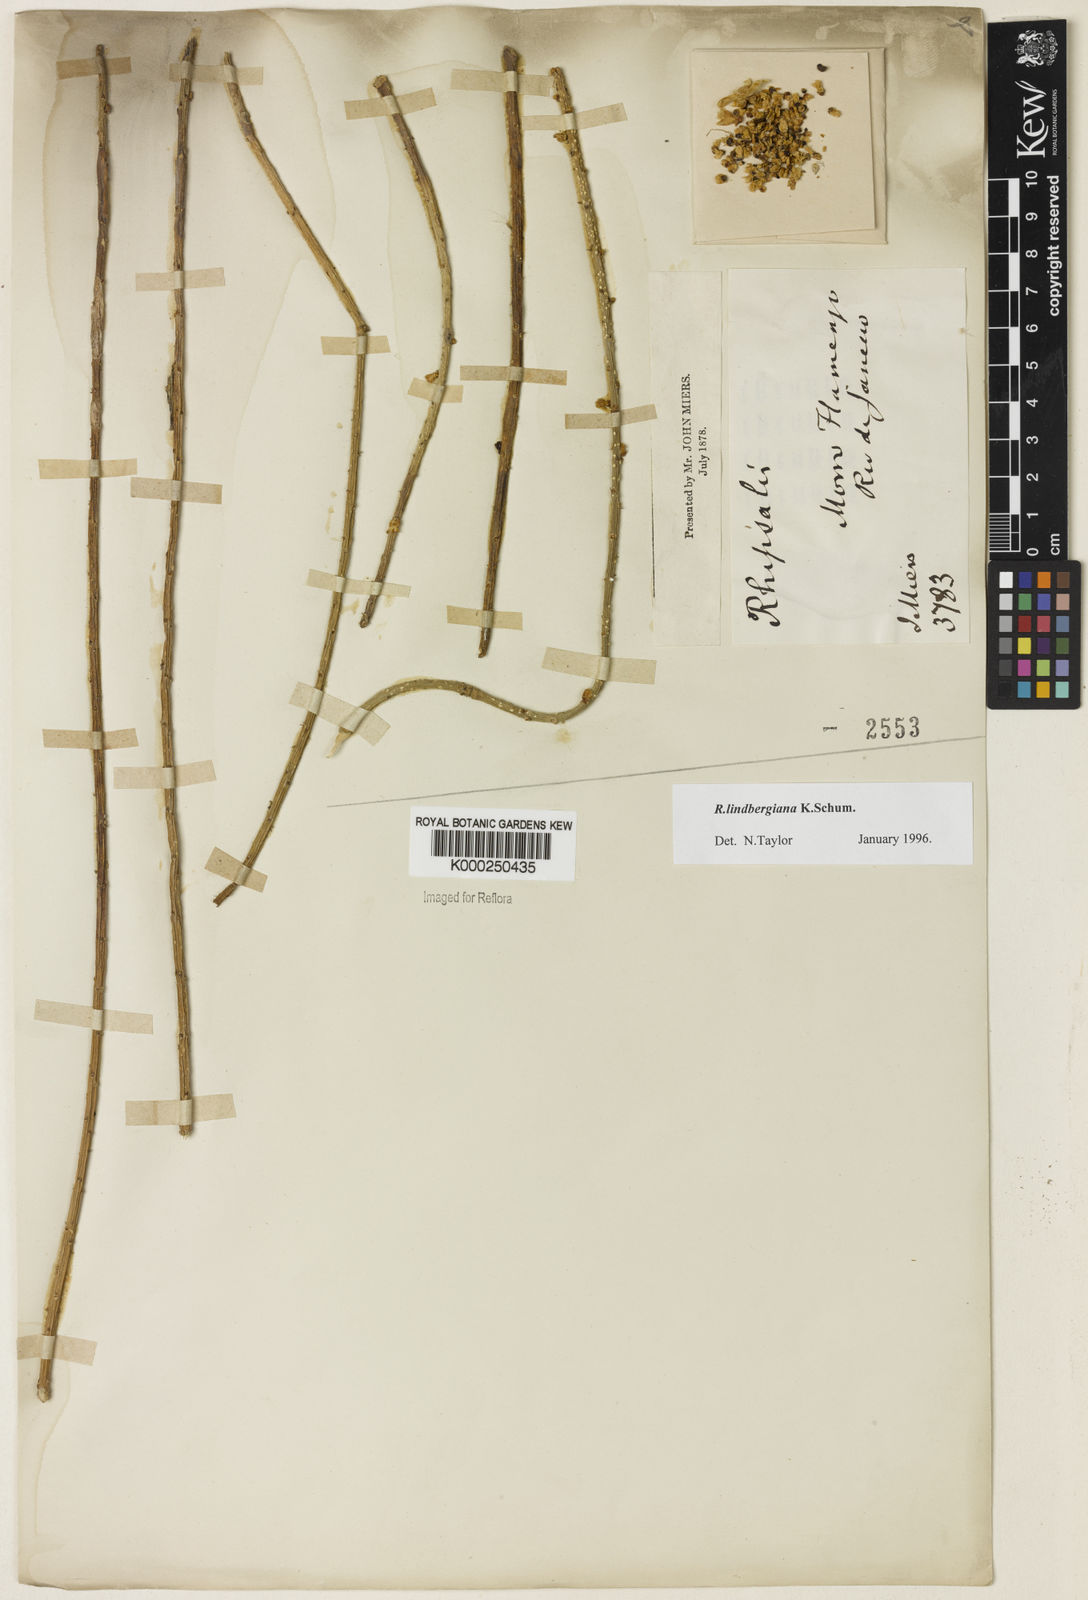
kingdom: Plantae
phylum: Tracheophyta
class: Magnoliopsida
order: Caryophyllales
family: Cactaceae
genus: Rhipsalis
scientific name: Rhipsalis lindbergiana
